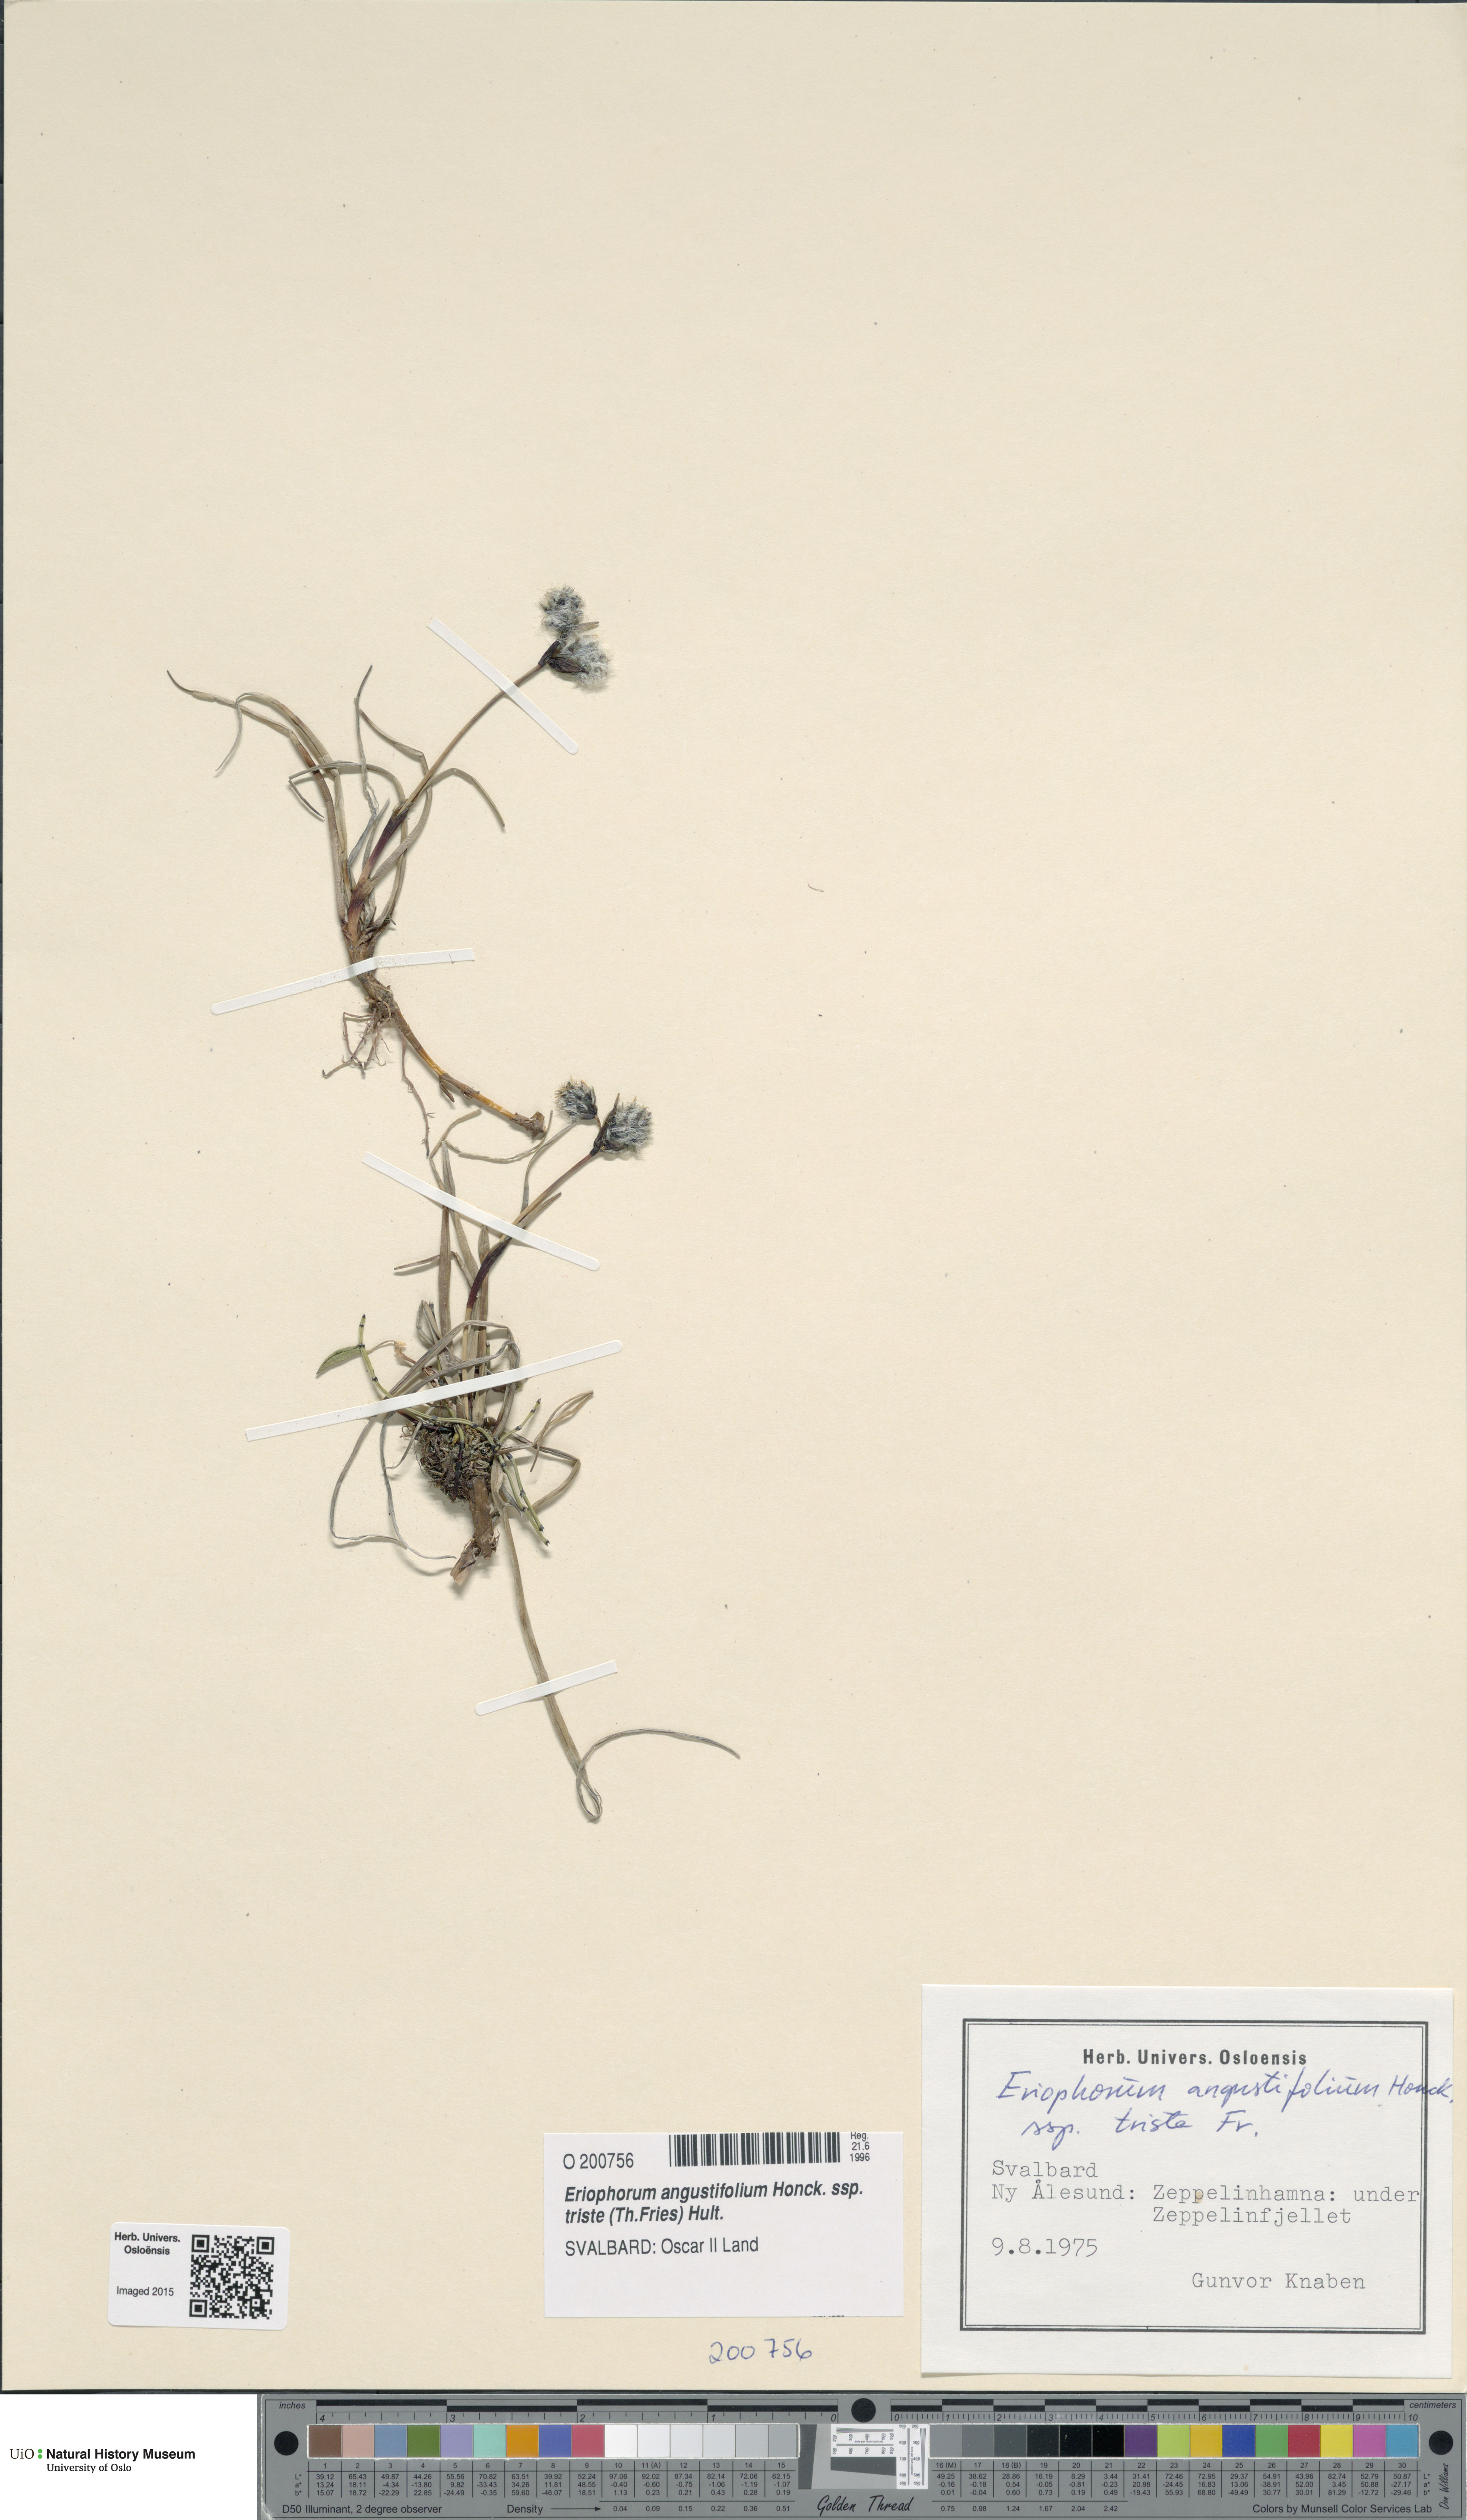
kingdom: Plantae
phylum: Tracheophyta
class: Liliopsida
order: Poales
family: Cyperaceae
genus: Eriophorum
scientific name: Eriophorum triste
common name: Tall cottongrass
